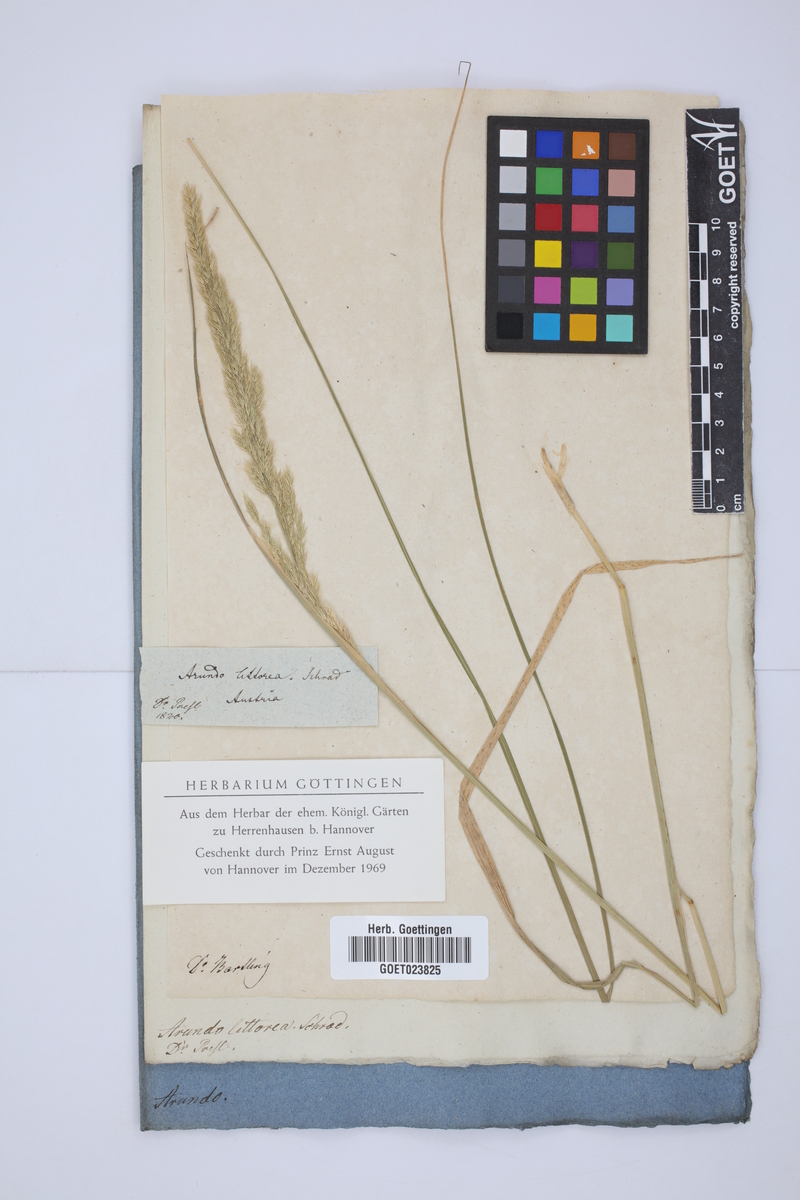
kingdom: Plantae
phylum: Tracheophyta
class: Liliopsida
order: Poales
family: Poaceae
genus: Calamagrostis
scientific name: Calamagrostis pseudophragmites
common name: Coastal small-reed
